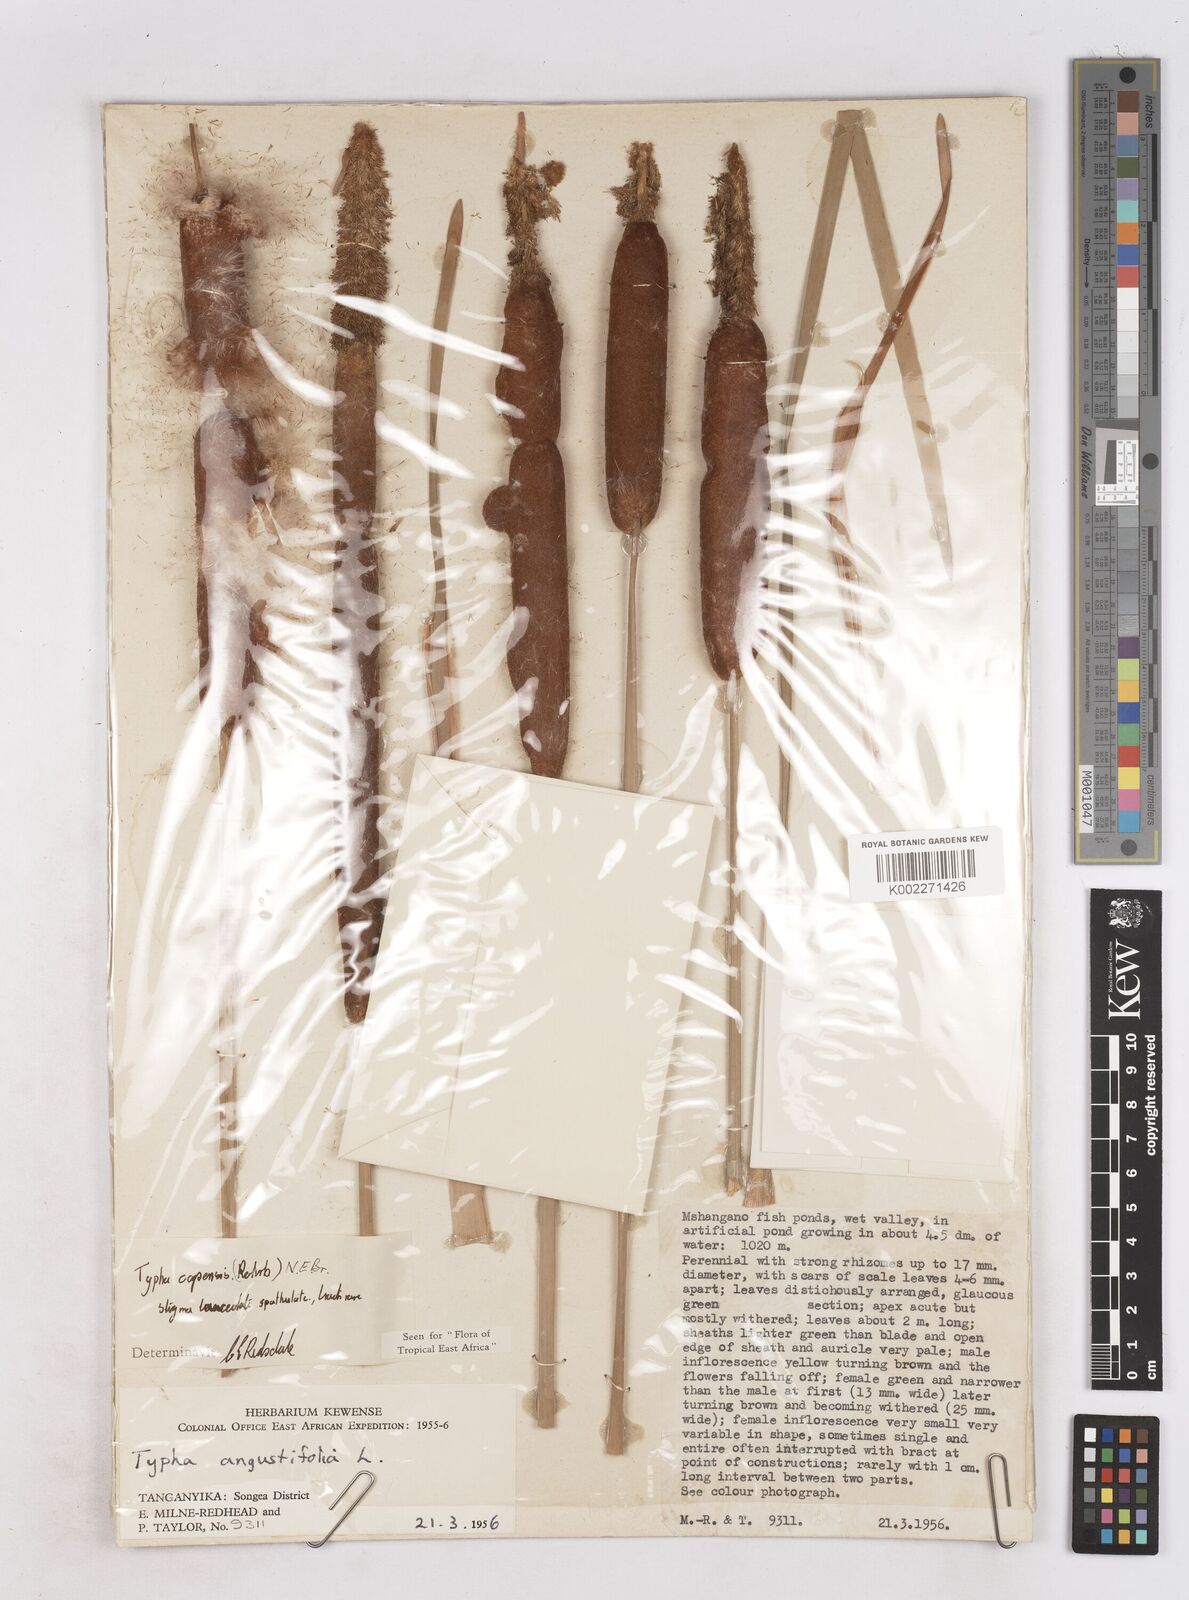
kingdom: Plantae
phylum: Tracheophyta
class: Liliopsida
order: Poales
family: Typhaceae
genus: Typha
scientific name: Typha capensis
